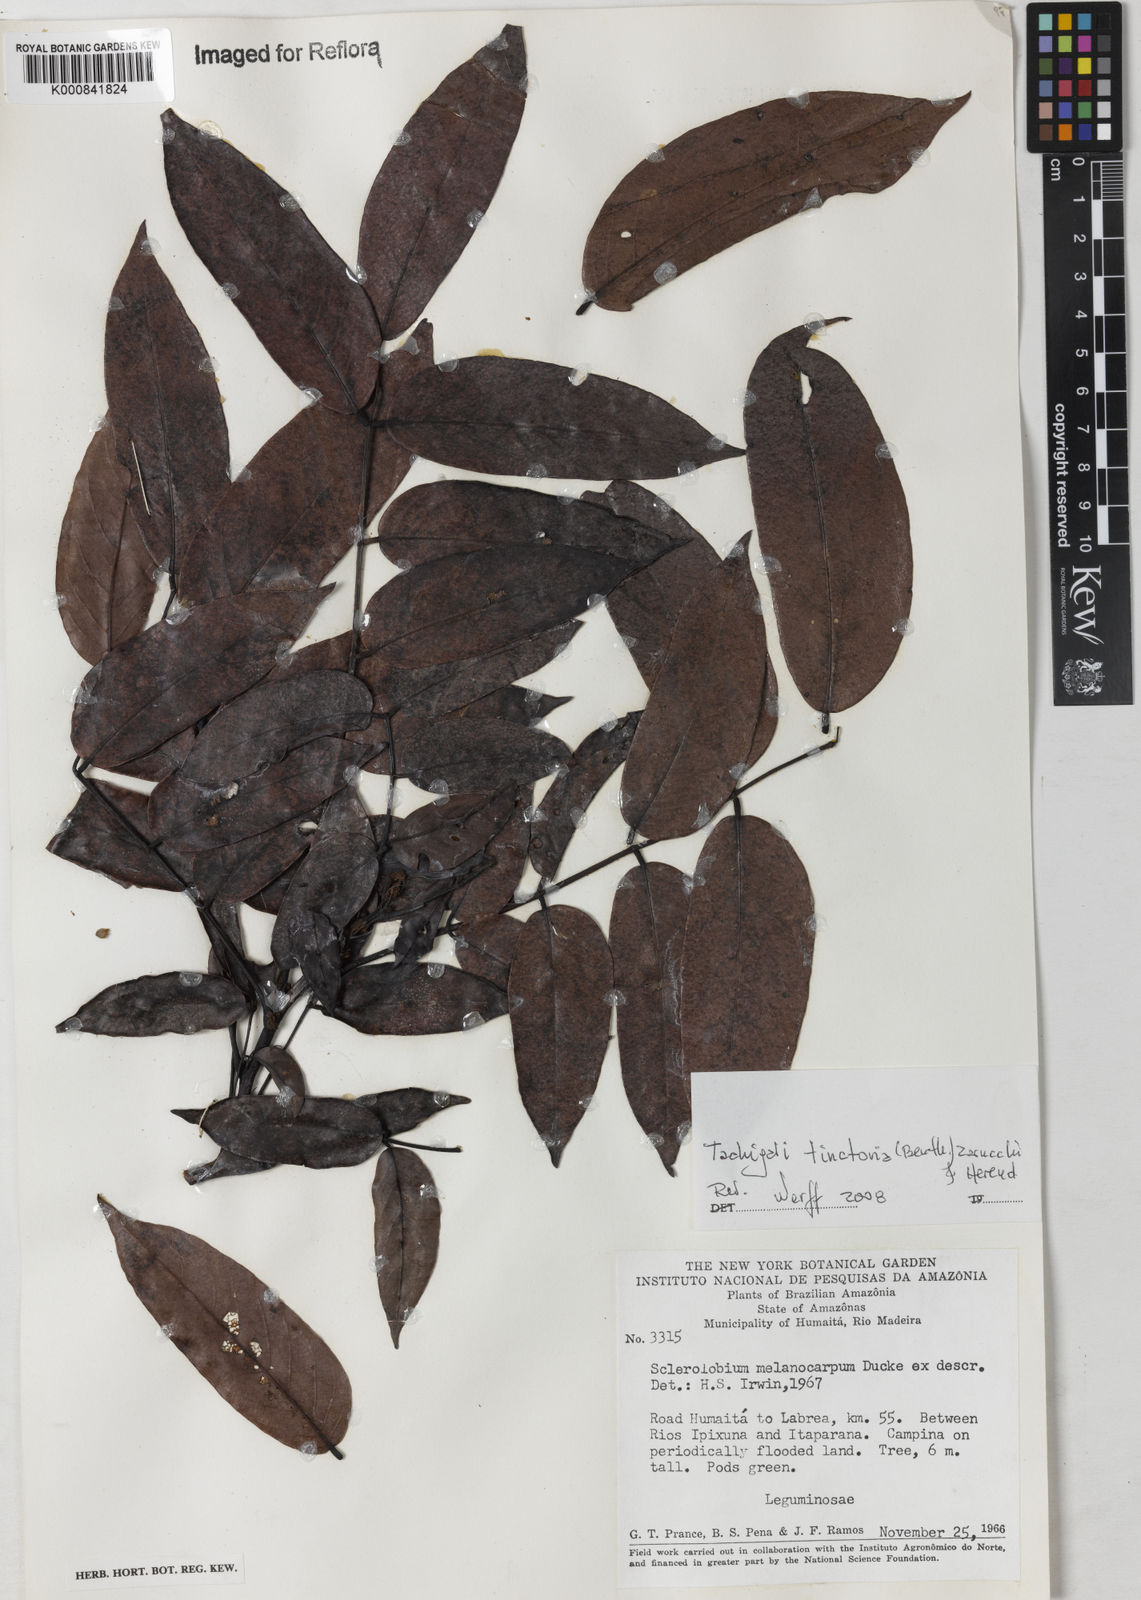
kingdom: Plantae
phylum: Tracheophyta
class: Magnoliopsida
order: Fabales
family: Fabaceae
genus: Tachigali
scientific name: Tachigali tinctoria
